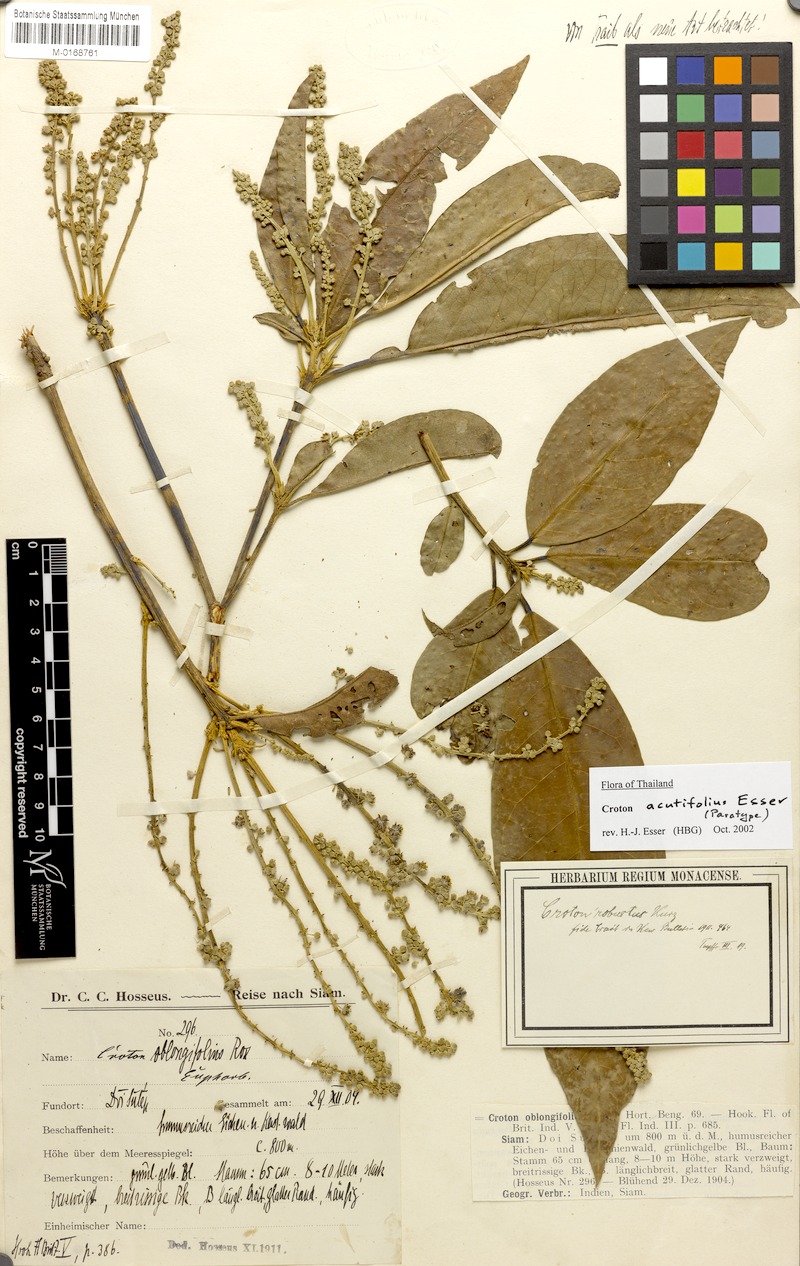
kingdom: Plantae
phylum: Tracheophyta
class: Magnoliopsida
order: Malpighiales
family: Euphorbiaceae
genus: Croton
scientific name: Croton acutifolius
